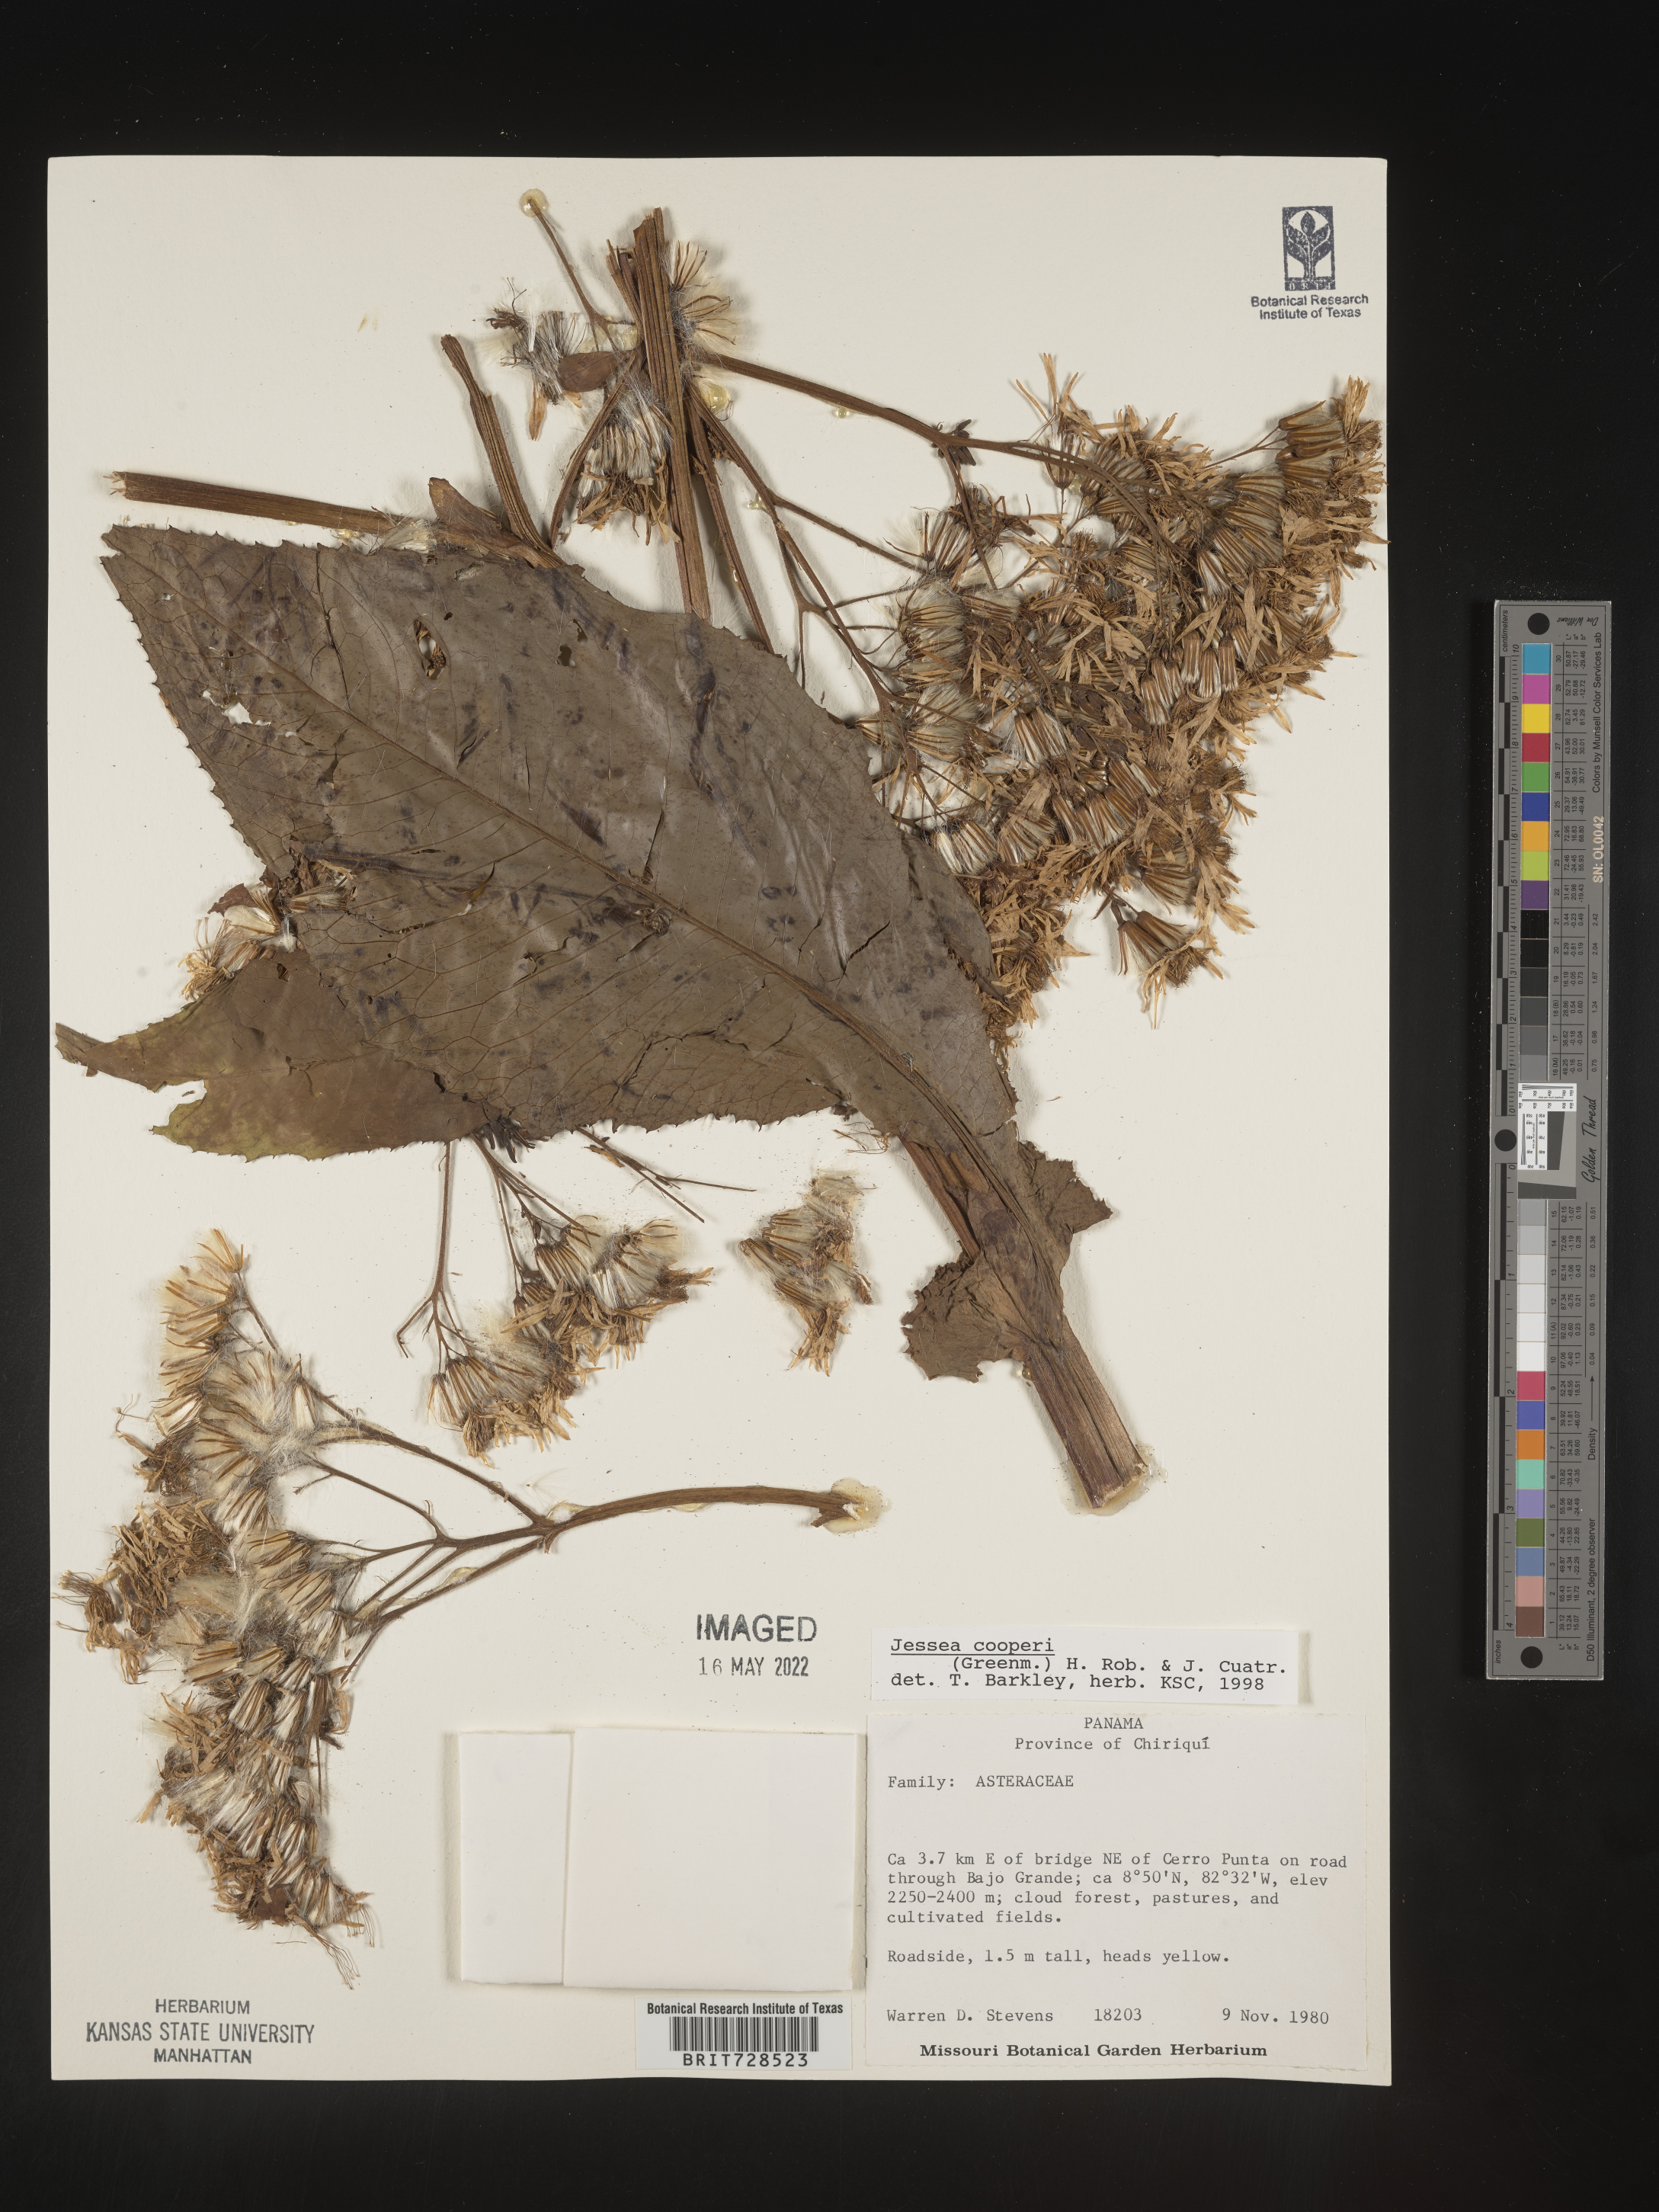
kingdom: Plantae
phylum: Tracheophyta
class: Magnoliopsida
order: Asterales
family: Asteraceae
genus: Jessea
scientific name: Jessea
